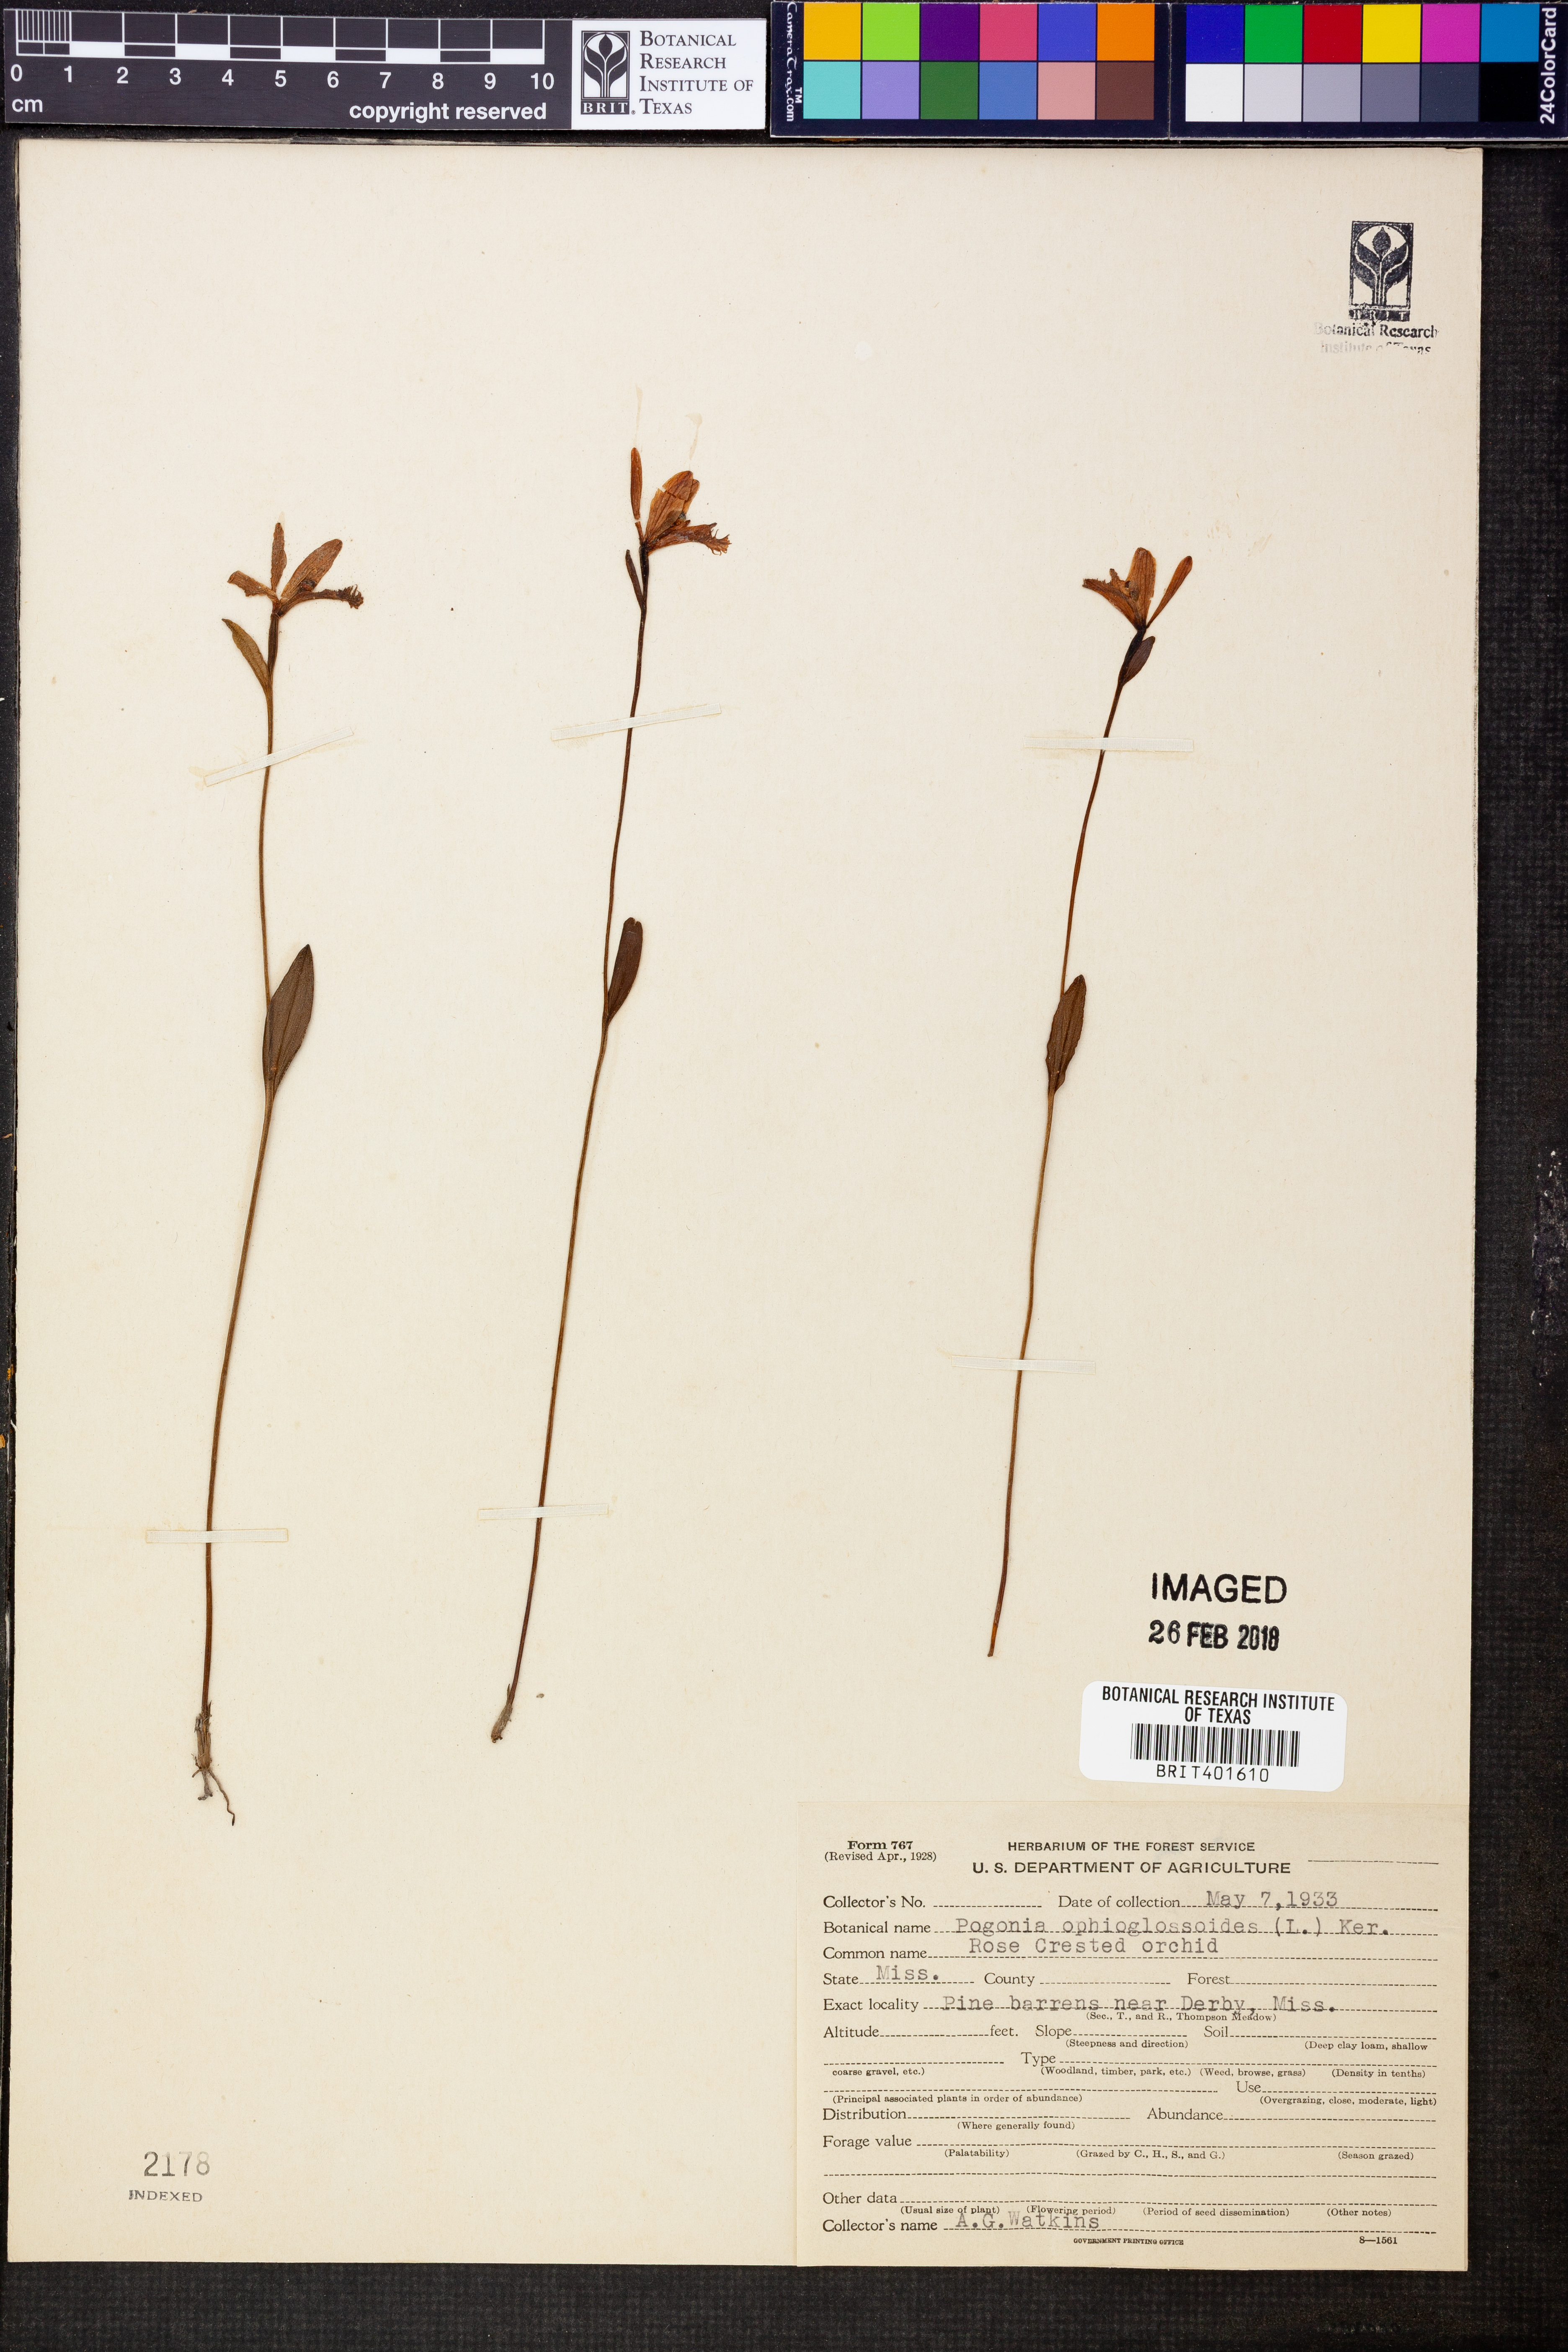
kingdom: Plantae
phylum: Tracheophyta
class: Liliopsida
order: Asparagales
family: Orchidaceae
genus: Pogonia
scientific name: Pogonia ophioglossoides
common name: Rose pogonia
